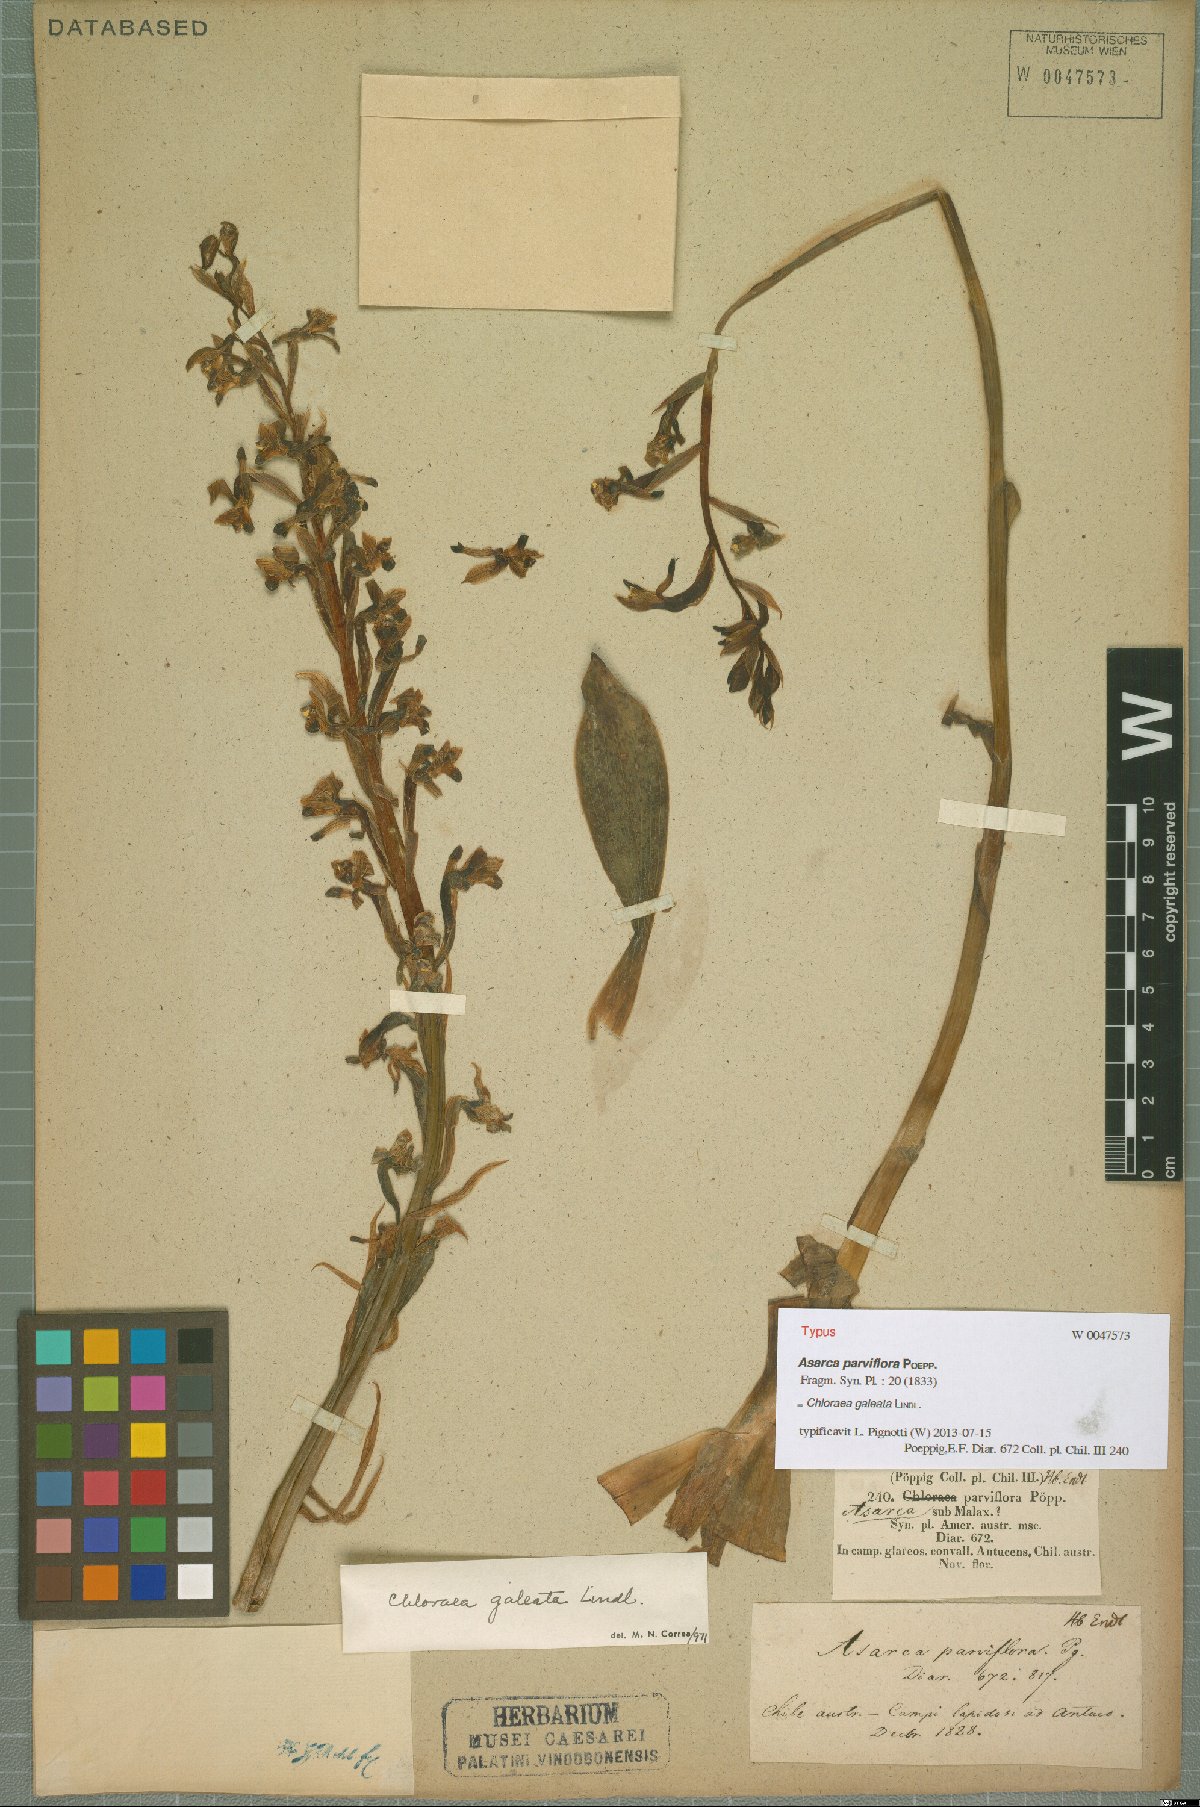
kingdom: Plantae
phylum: Tracheophyta
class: Liliopsida
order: Asparagales
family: Orchidaceae
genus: Chloraea
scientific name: Chloraea galeata
